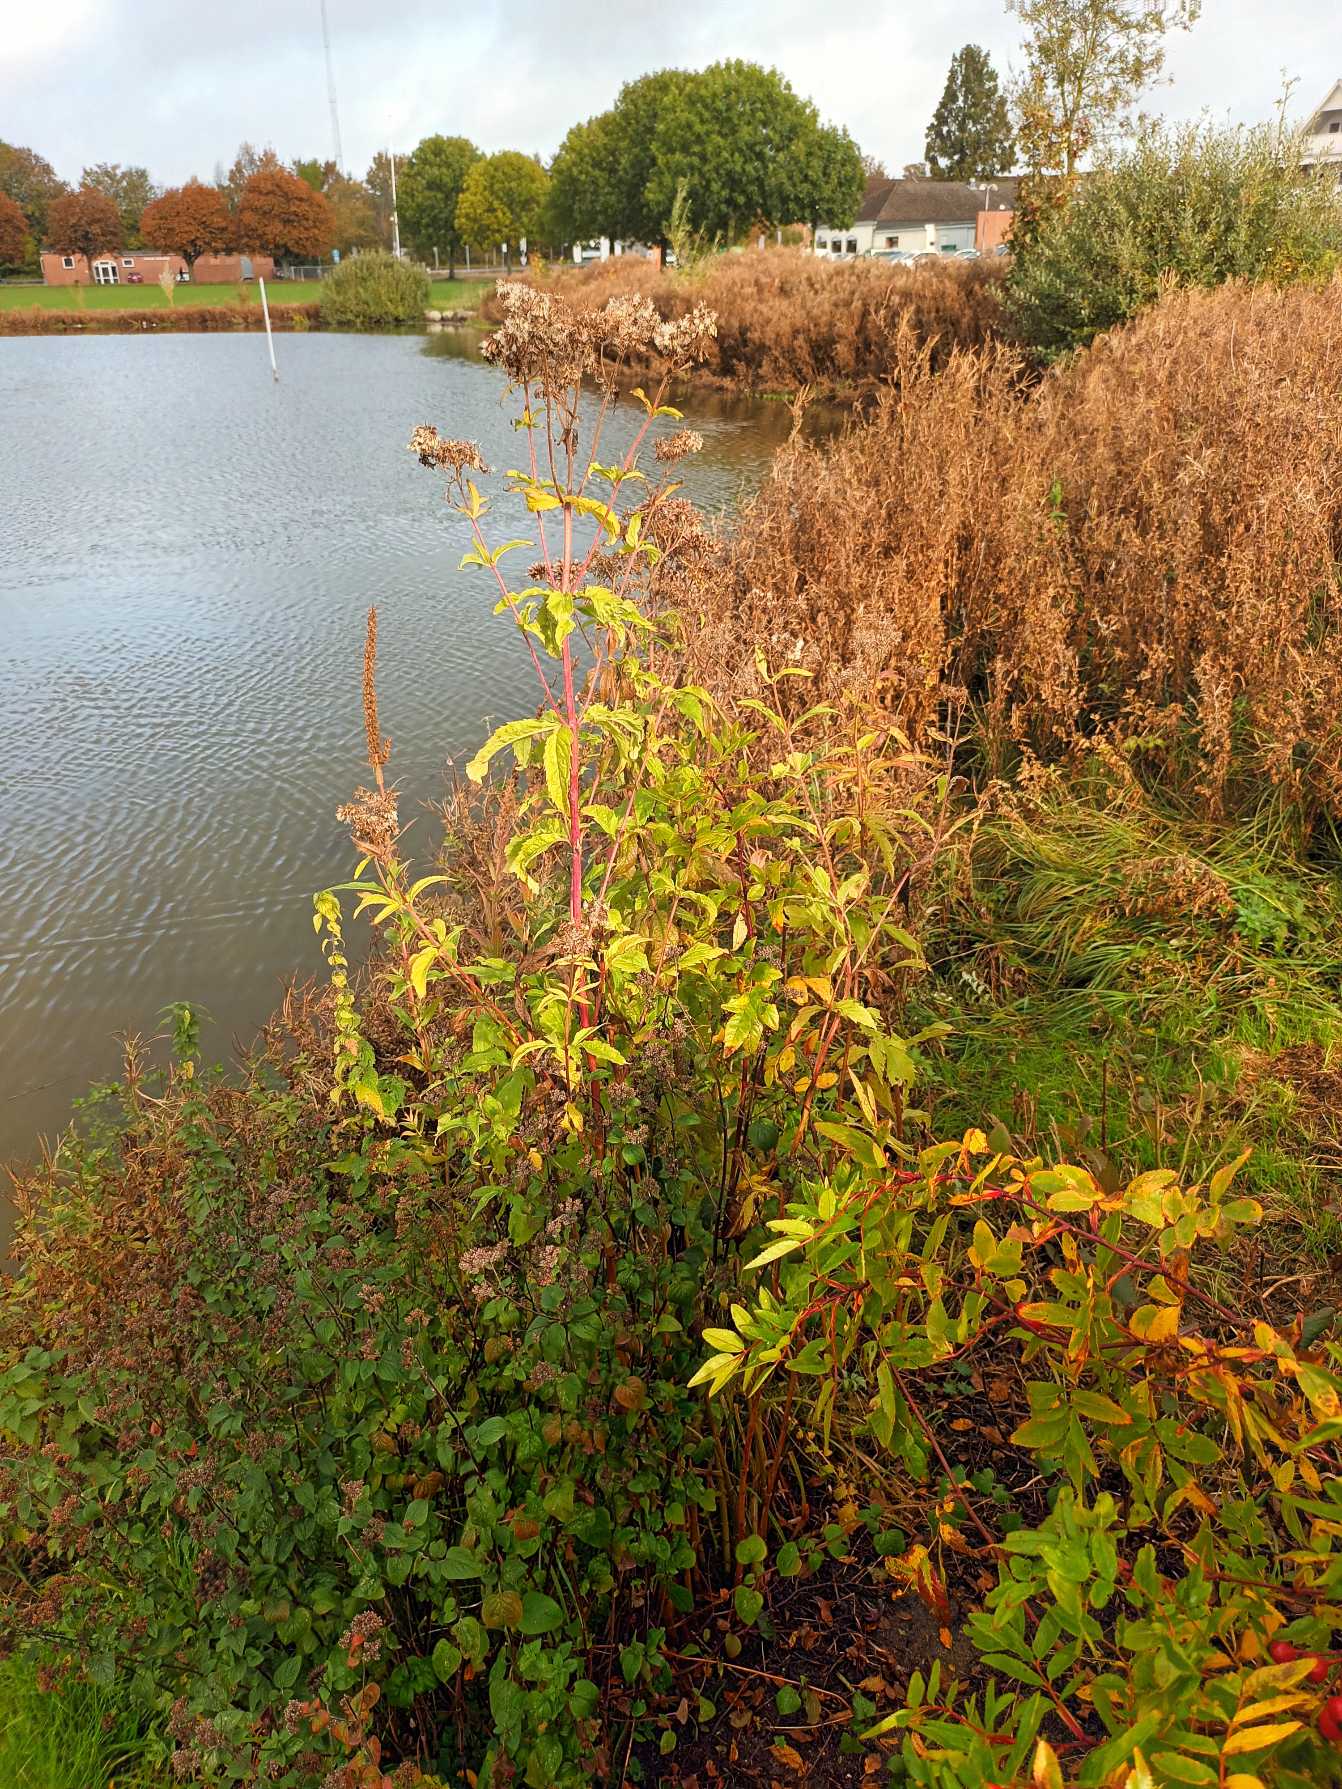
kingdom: Plantae
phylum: Tracheophyta
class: Magnoliopsida
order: Asterales
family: Asteraceae
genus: Eupatorium
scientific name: Eupatorium cannabinum
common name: Hjortetrøst
